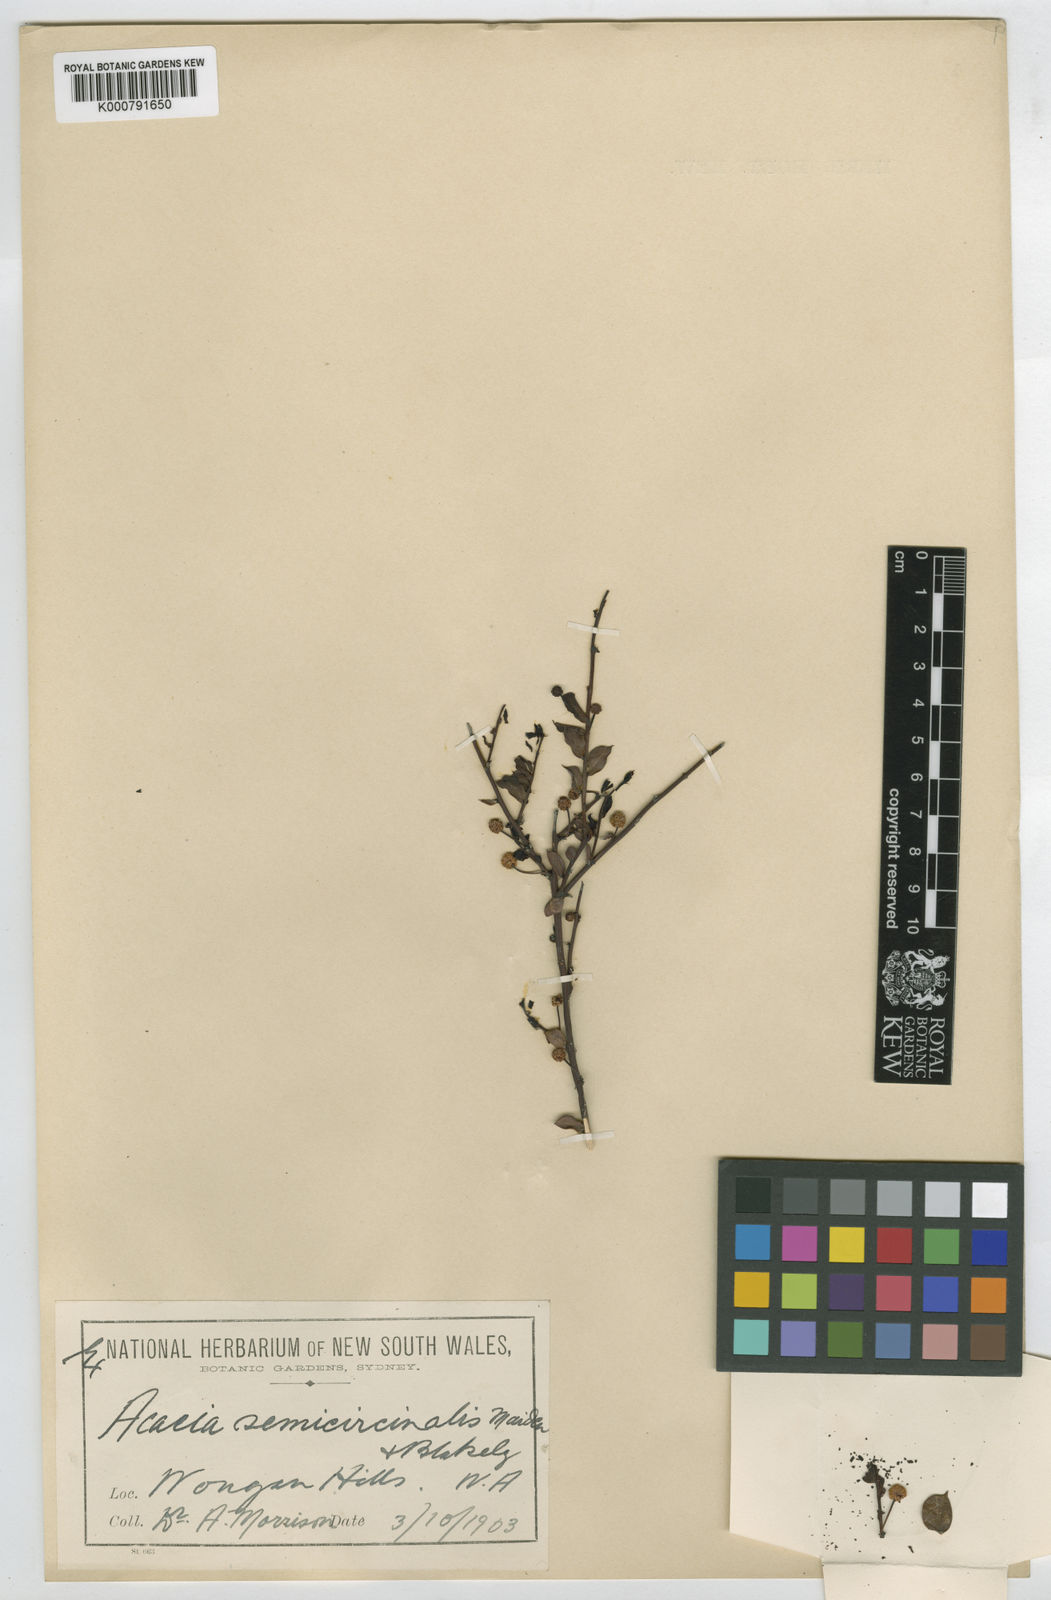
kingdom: Plantae
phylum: Tracheophyta
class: Magnoliopsida
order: Fabales
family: Fabaceae
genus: Acacia
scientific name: Acacia semicircinalis
